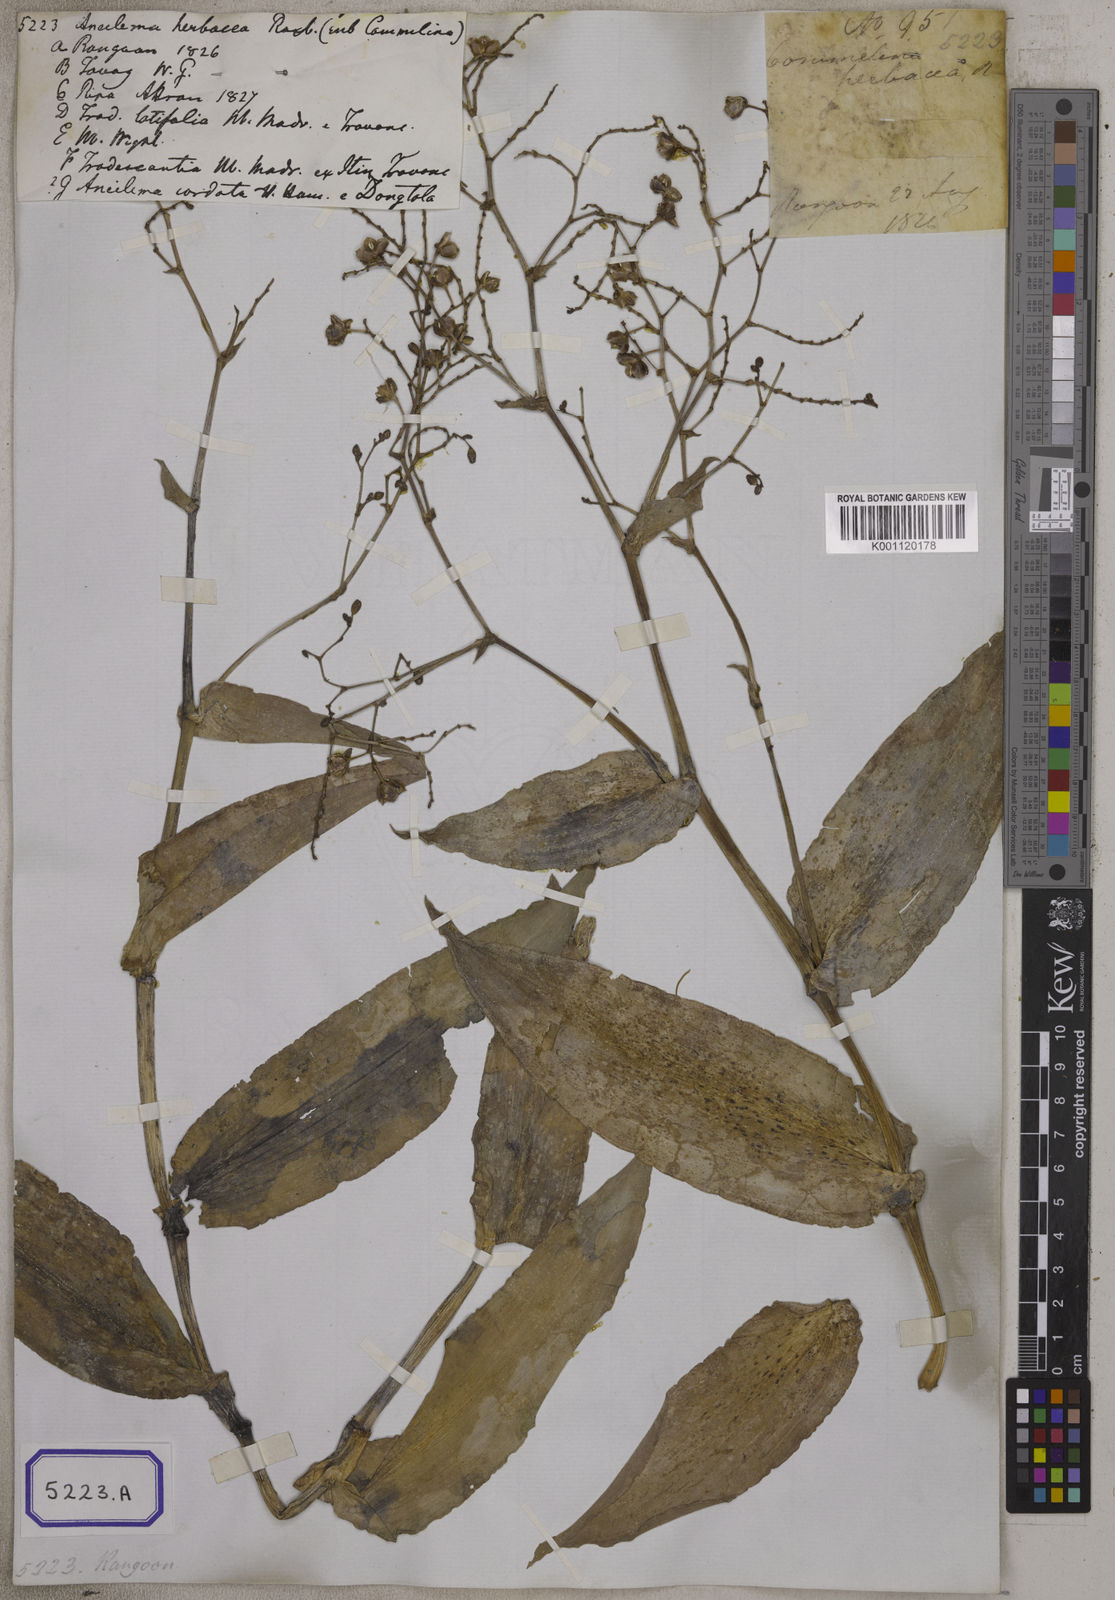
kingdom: Plantae
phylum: Tracheophyta
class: Liliopsida
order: Commelinales
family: Commelinaceae
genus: Murdannia
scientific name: Murdannia japonica
